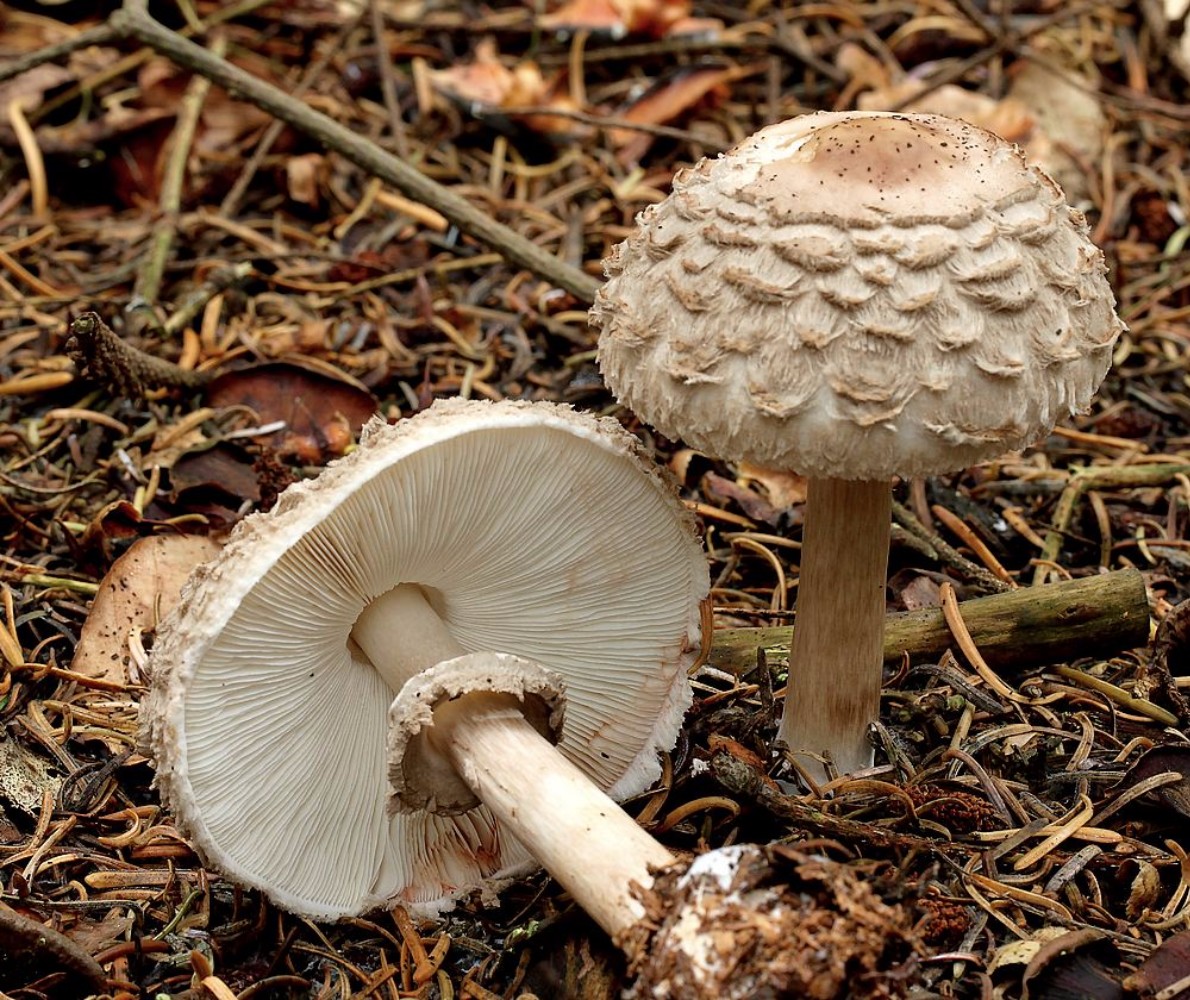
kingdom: Fungi
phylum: Basidiomycota
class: Agaricomycetes
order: Agaricales
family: Agaricaceae
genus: Chlorophyllum
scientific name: Chlorophyllum olivieri
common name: almindelig rabarberhat
